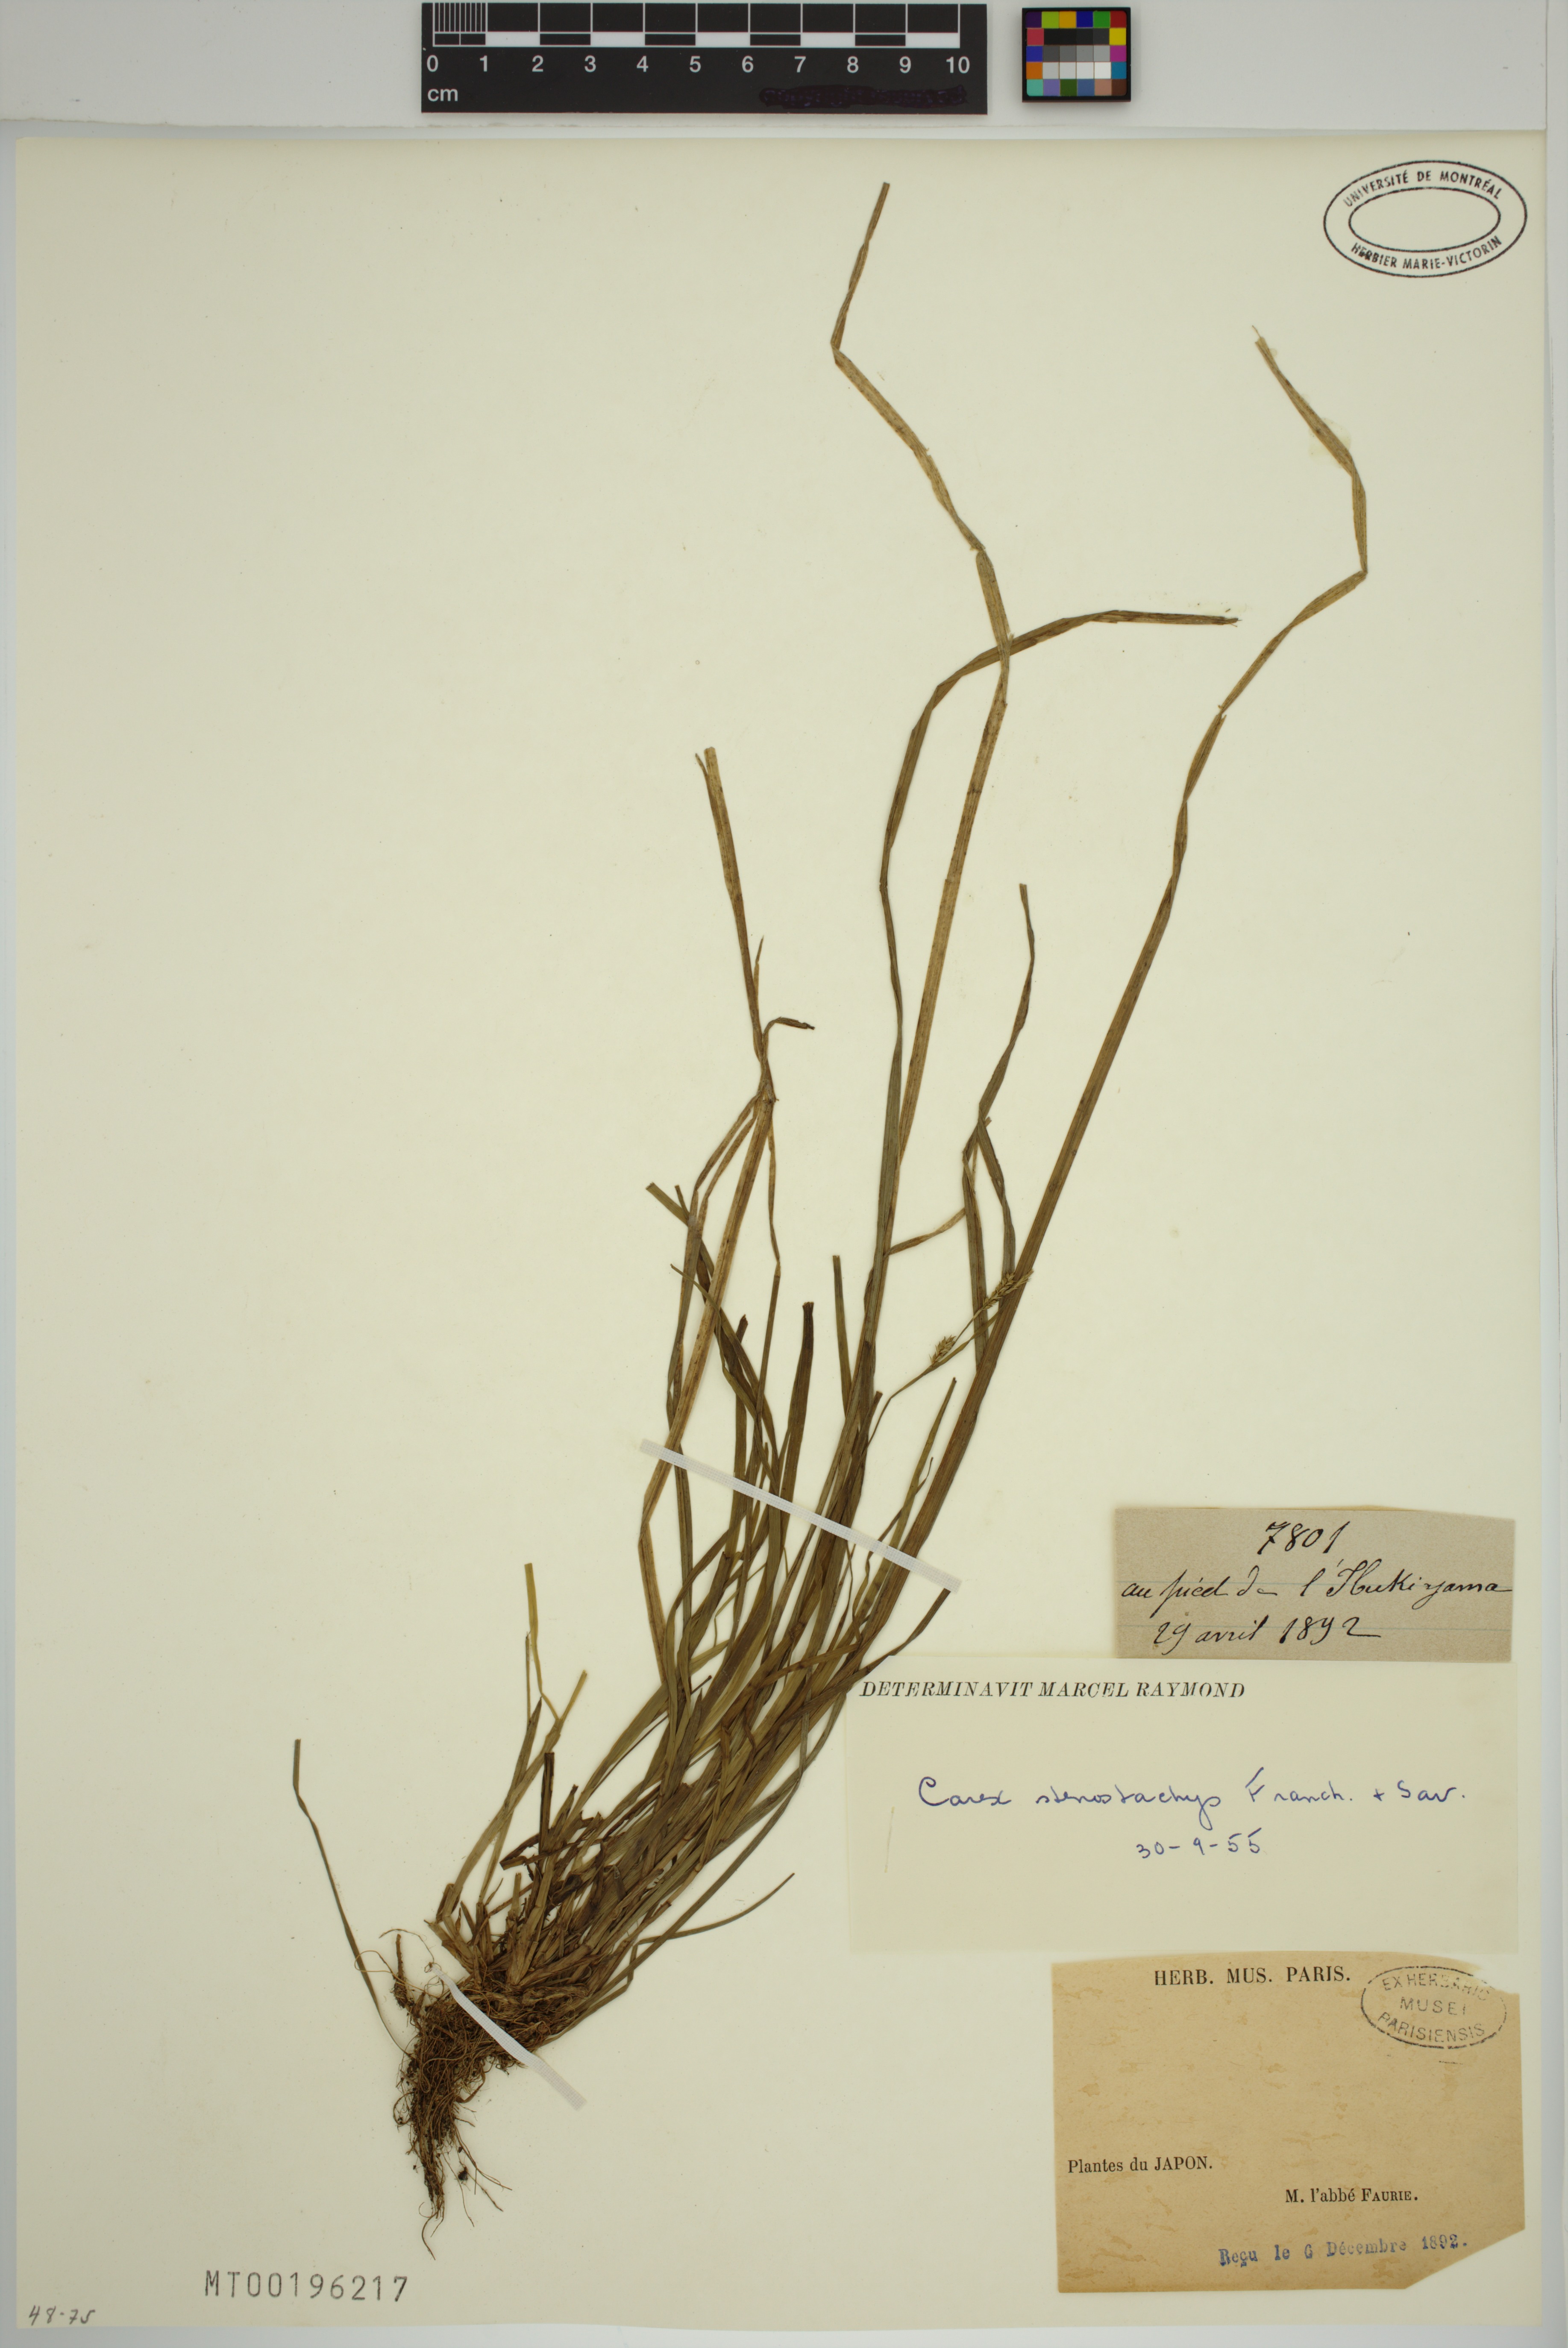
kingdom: Plantae
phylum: Tracheophyta
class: Liliopsida
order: Poales
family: Cyperaceae
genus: Carex
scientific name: Carex stenostachys
